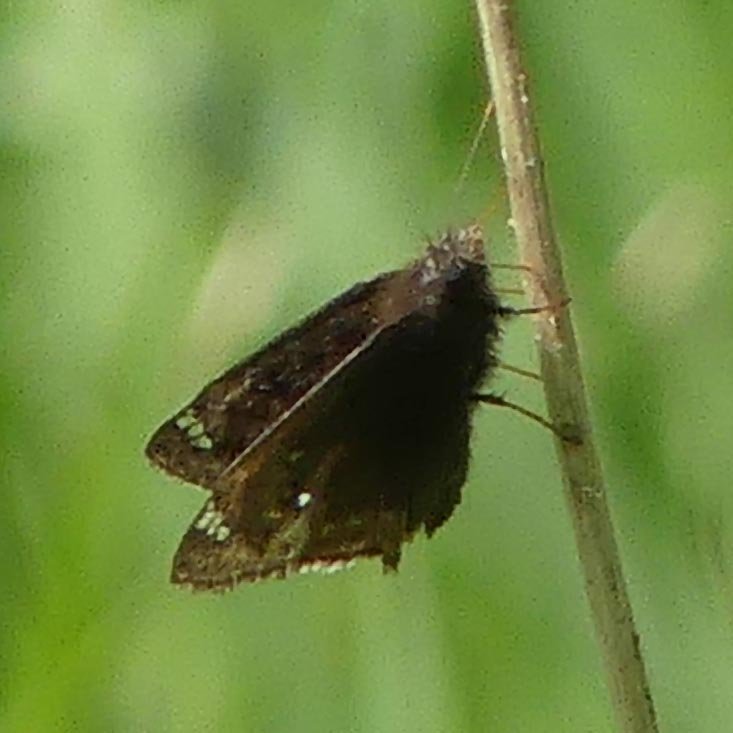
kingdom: Animalia
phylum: Arthropoda
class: Insecta
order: Lepidoptera
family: Hesperiidae
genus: Gesta
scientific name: Gesta
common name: Juvenal's Duskywing
